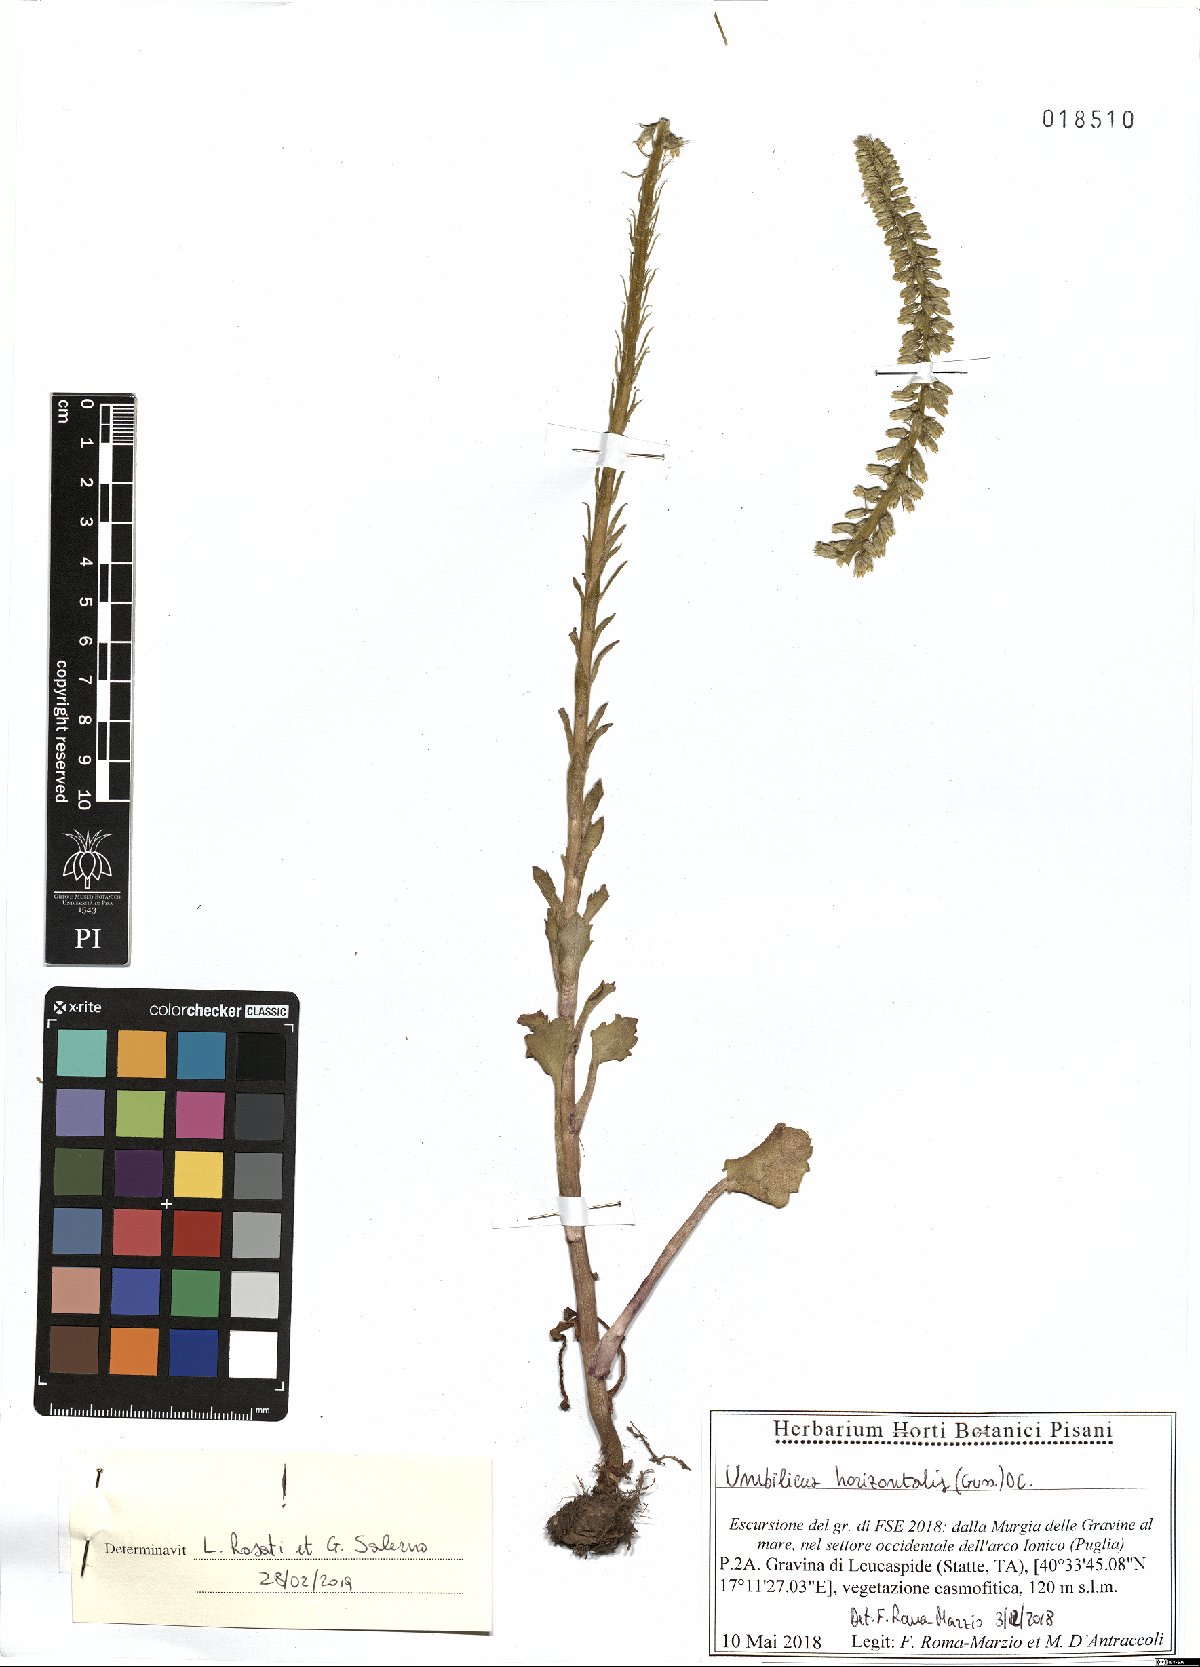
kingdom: Plantae
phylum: Tracheophyta
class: Magnoliopsida
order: Saxifragales
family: Crassulaceae
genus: Umbilicus
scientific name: Umbilicus horizontalis
